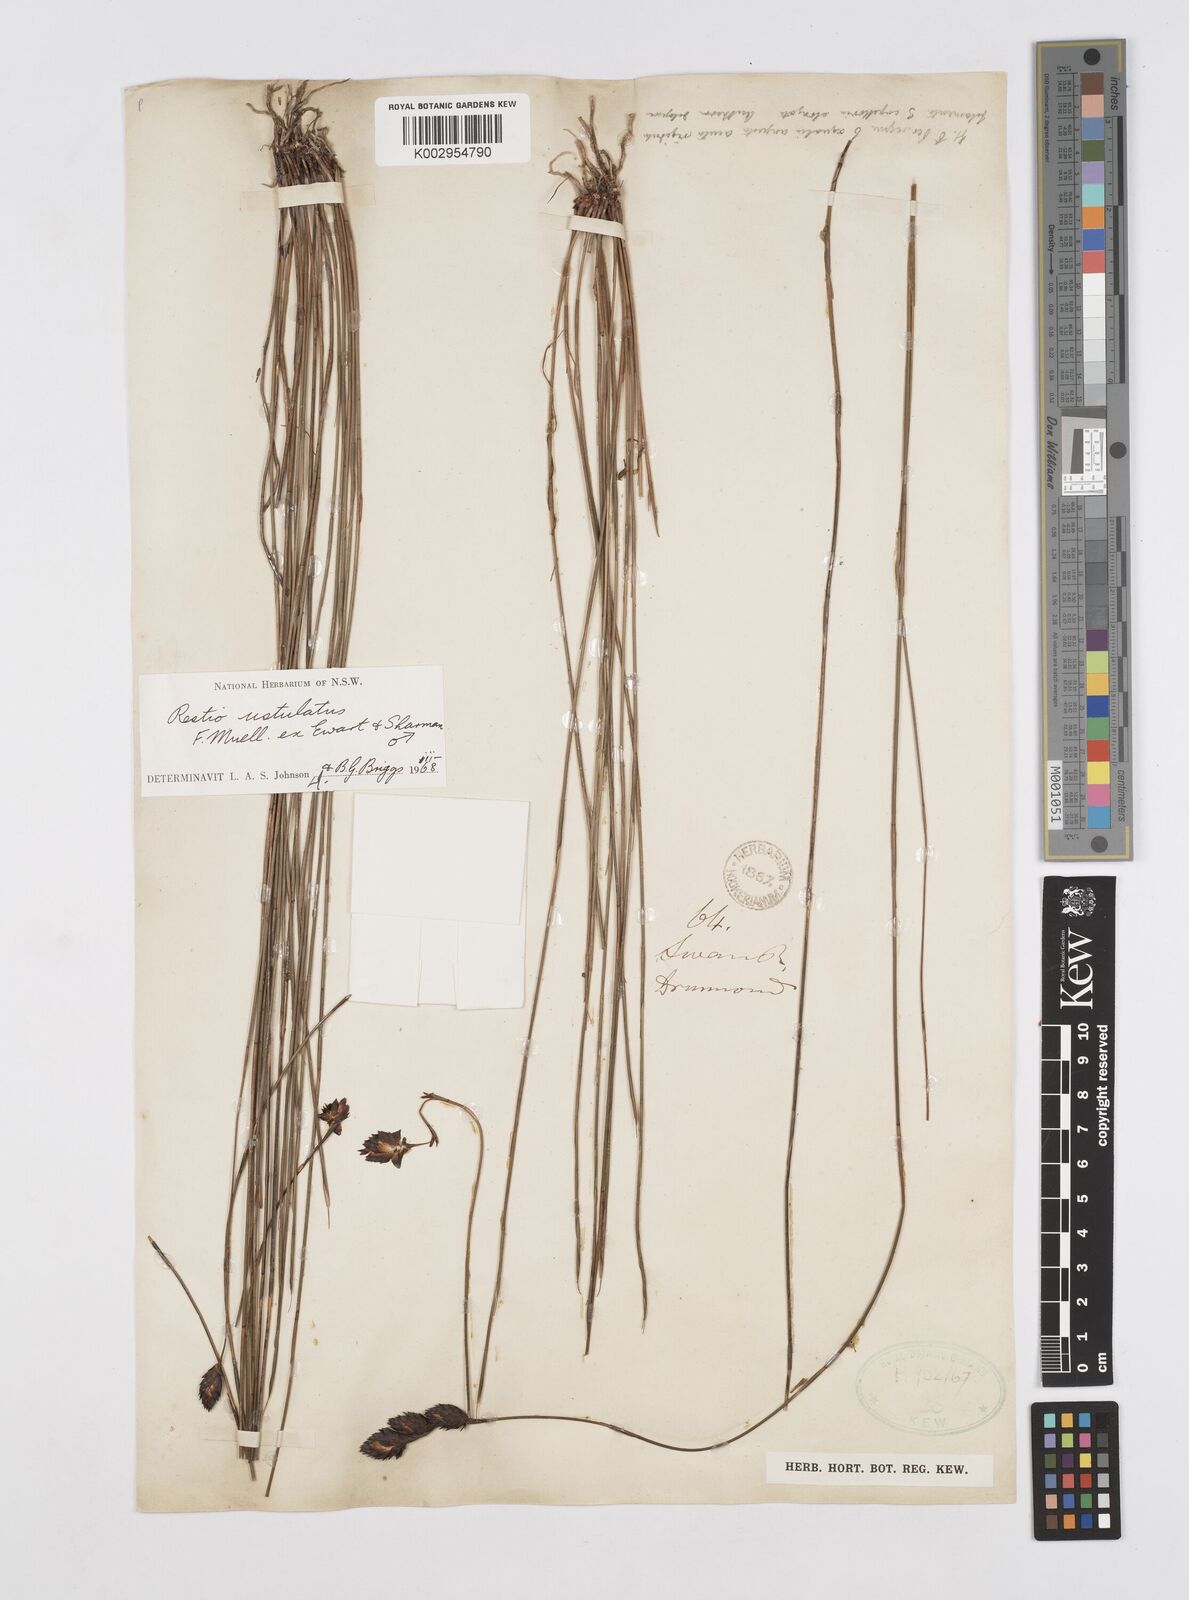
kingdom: Plantae
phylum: Tracheophyta
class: Liliopsida
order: Poales
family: Restionaceae
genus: Melanostachya
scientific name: Melanostachya ustulata
